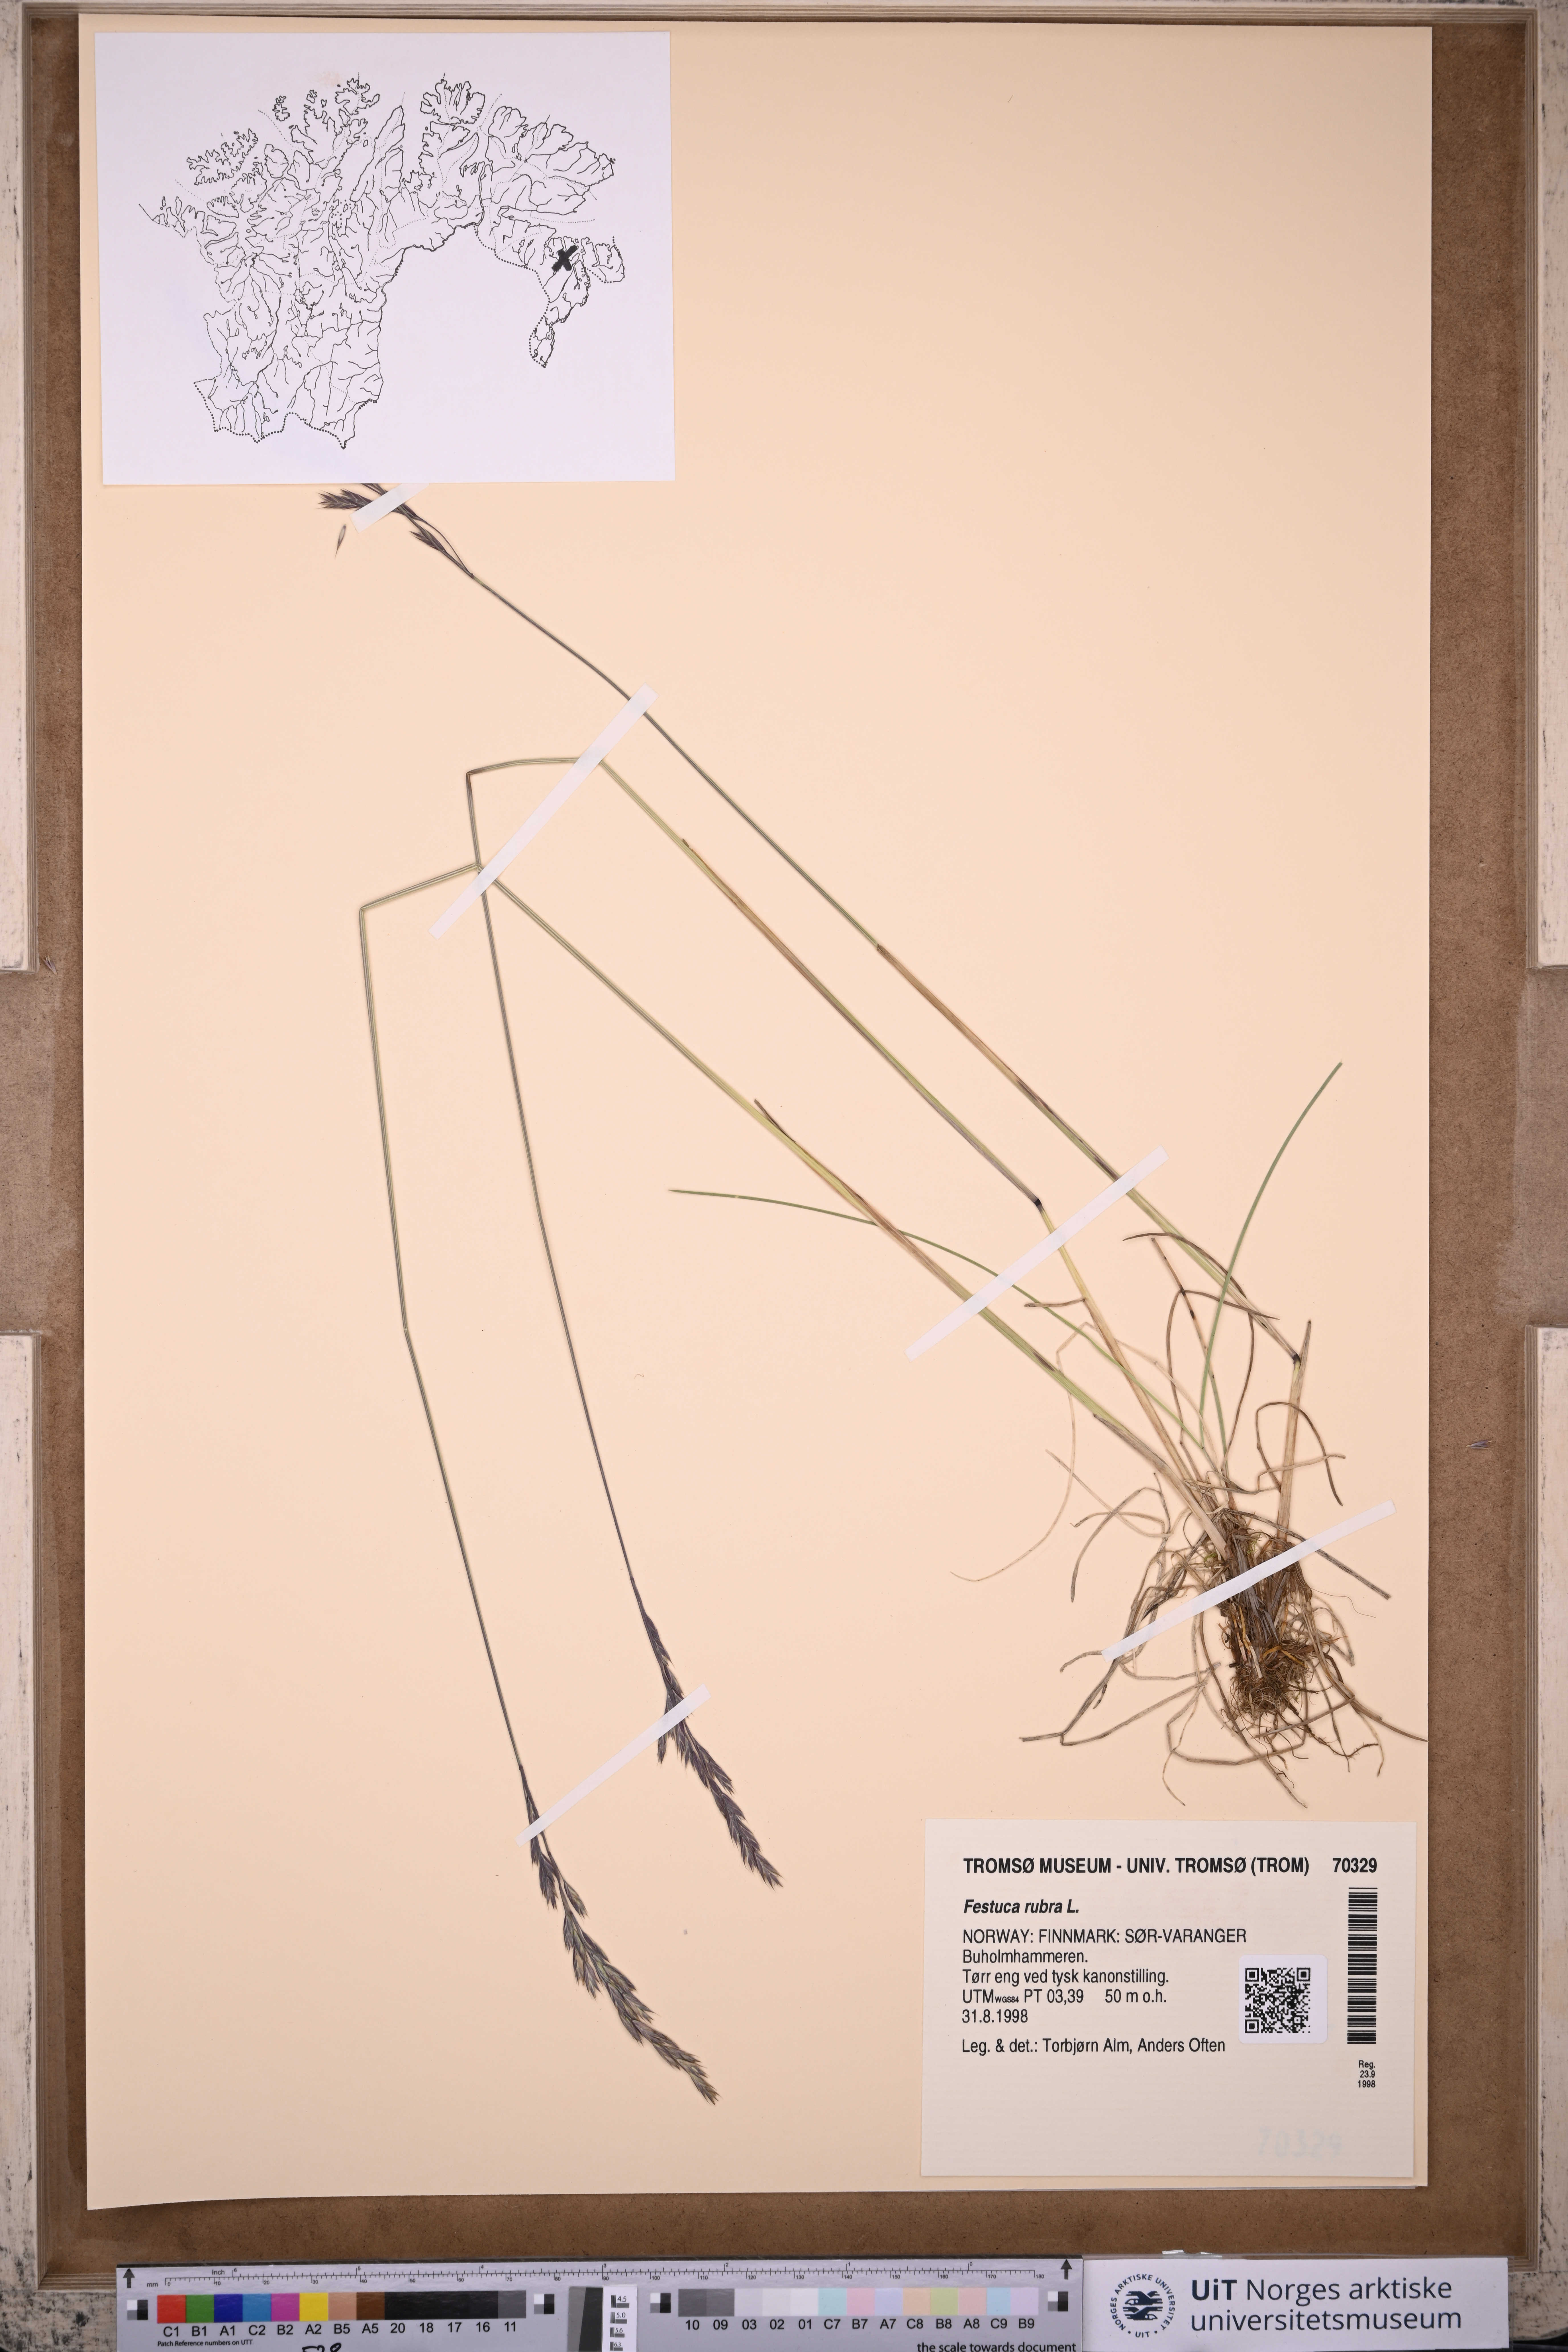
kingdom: Plantae
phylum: Tracheophyta
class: Liliopsida
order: Poales
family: Poaceae
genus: Festuca
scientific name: Festuca rubra
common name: Red fescue
